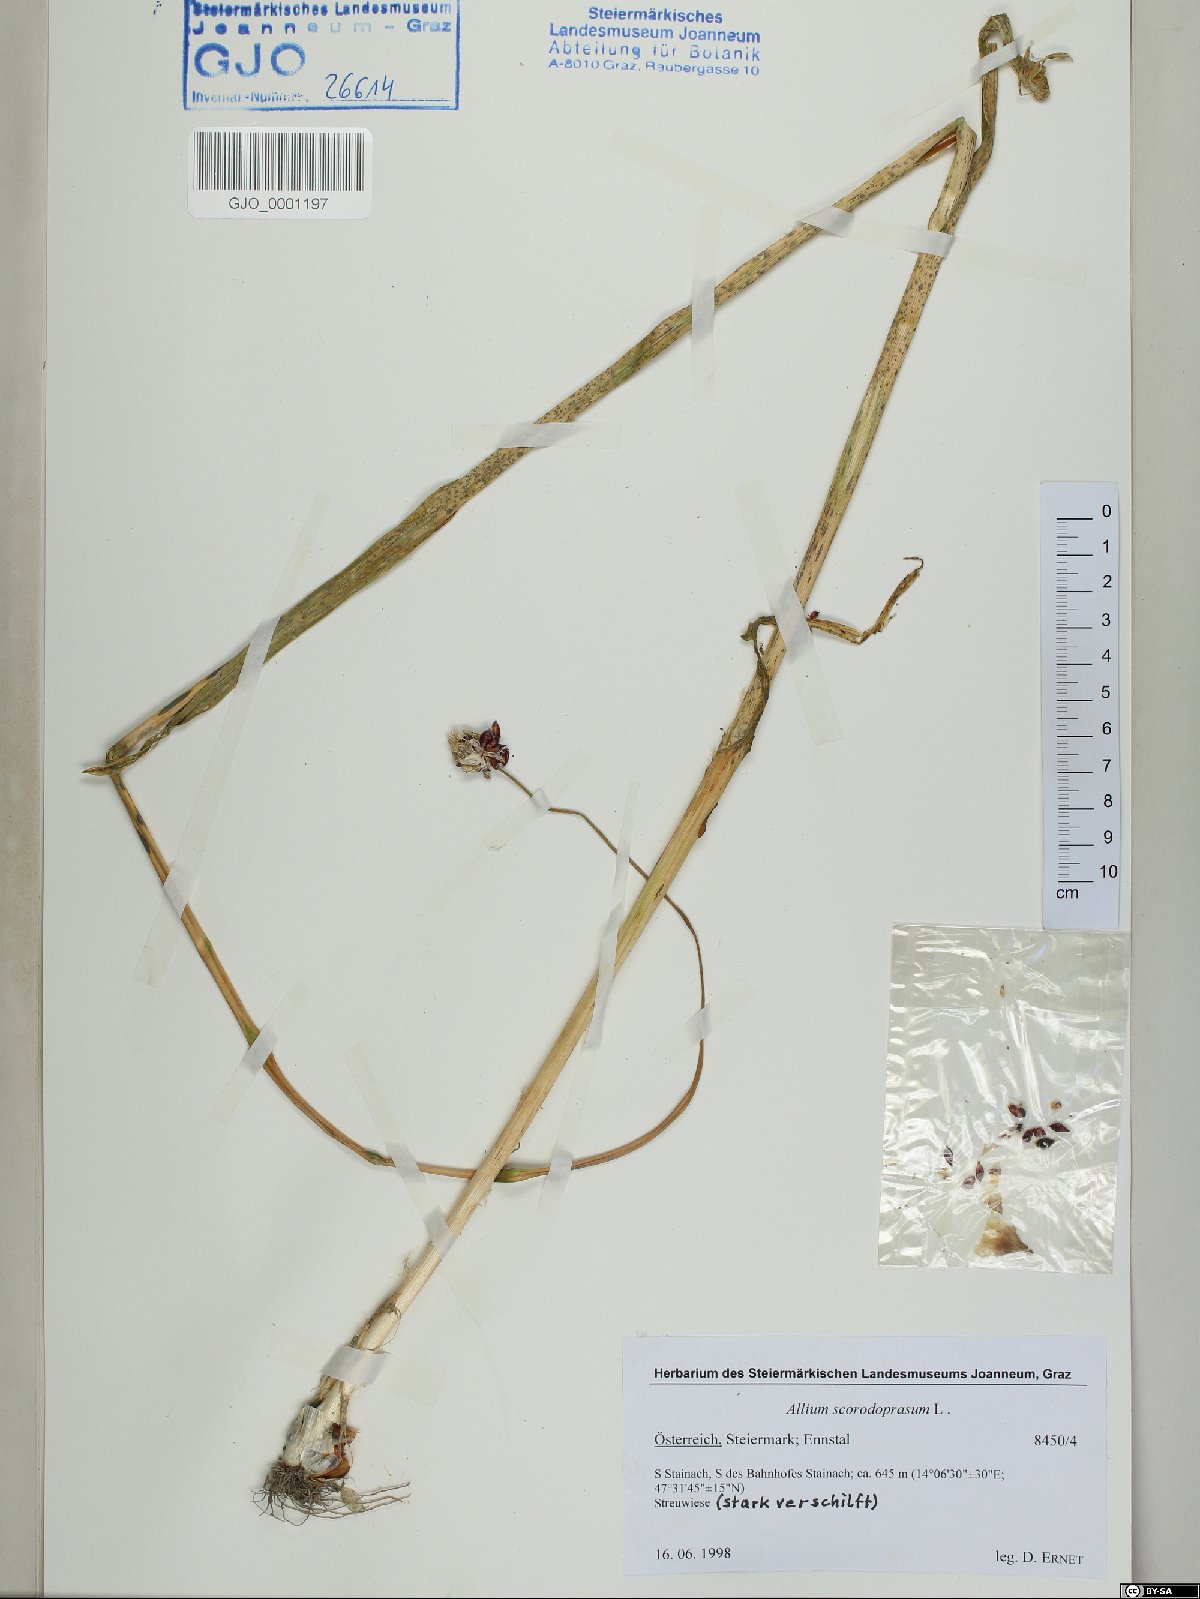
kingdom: Plantae
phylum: Tracheophyta
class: Liliopsida
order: Asparagales
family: Amaryllidaceae
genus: Allium
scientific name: Allium scorodoprasum
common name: Sand leek
